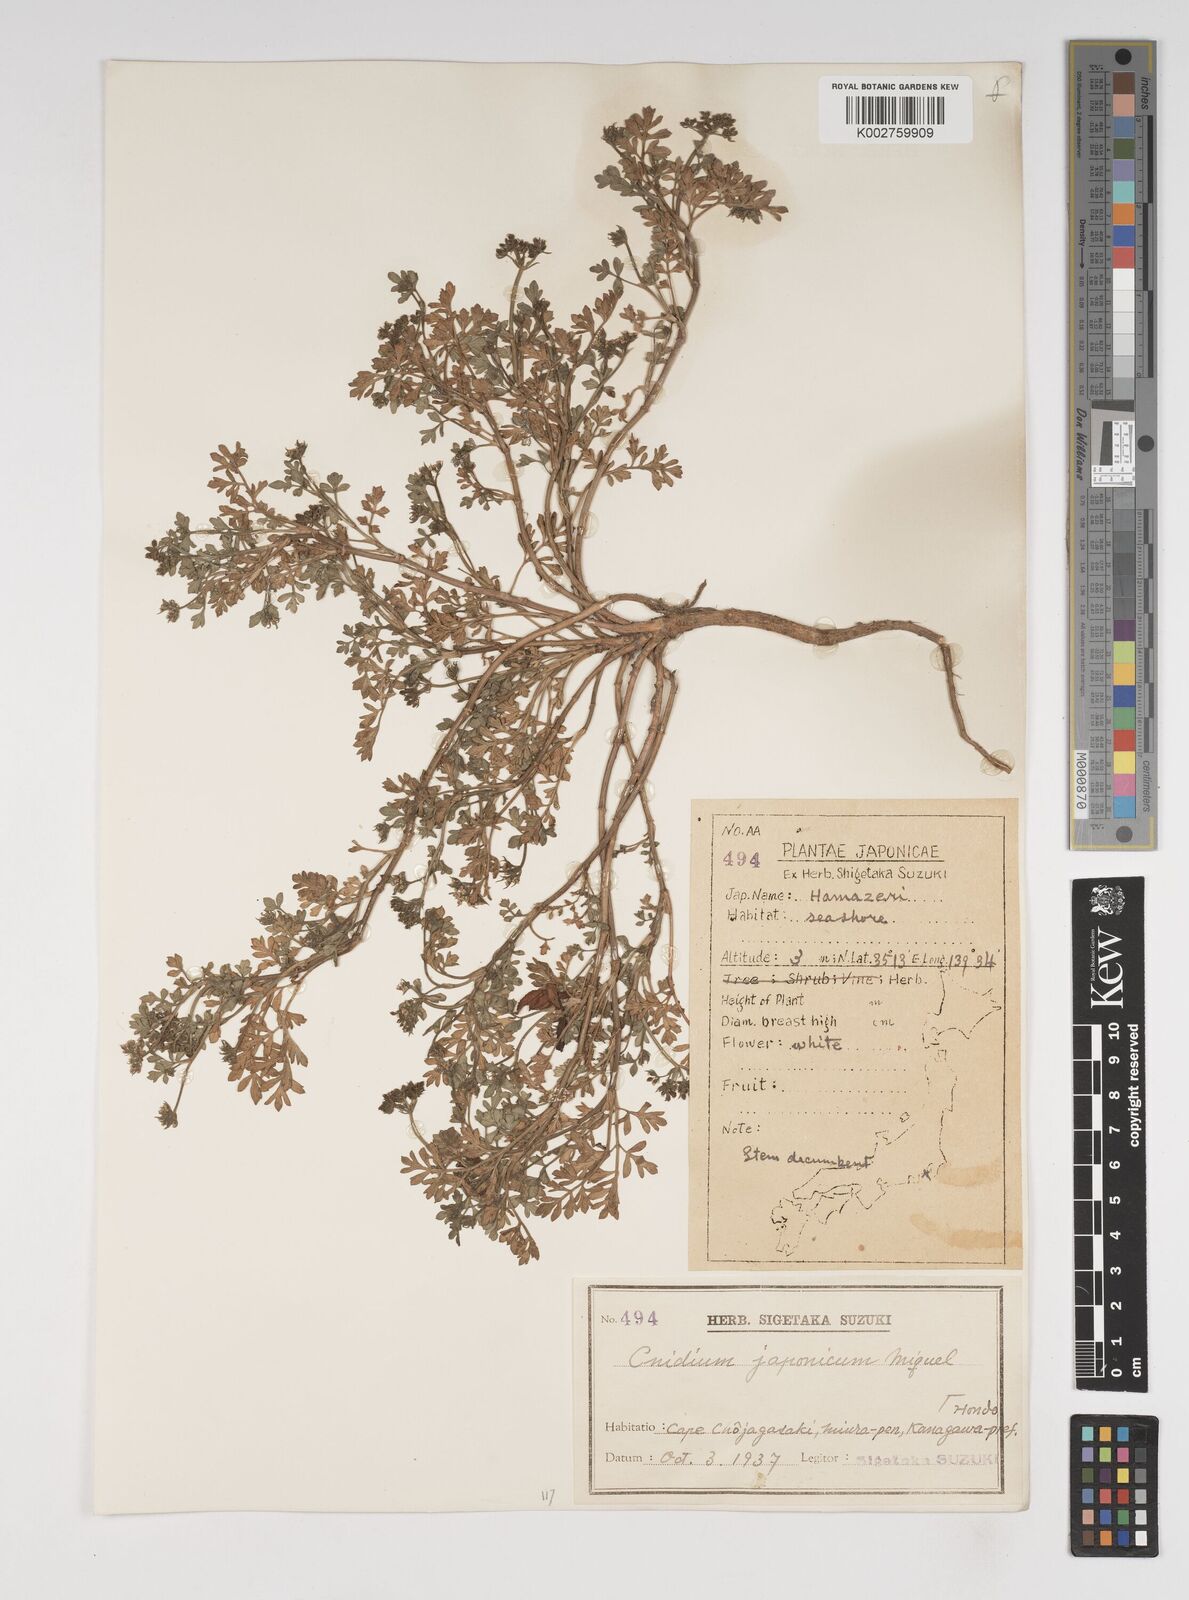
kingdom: Plantae
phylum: Tracheophyta
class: Magnoliopsida
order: Apiales
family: Apiaceae
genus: Cnidium
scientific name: Cnidium japonicum
